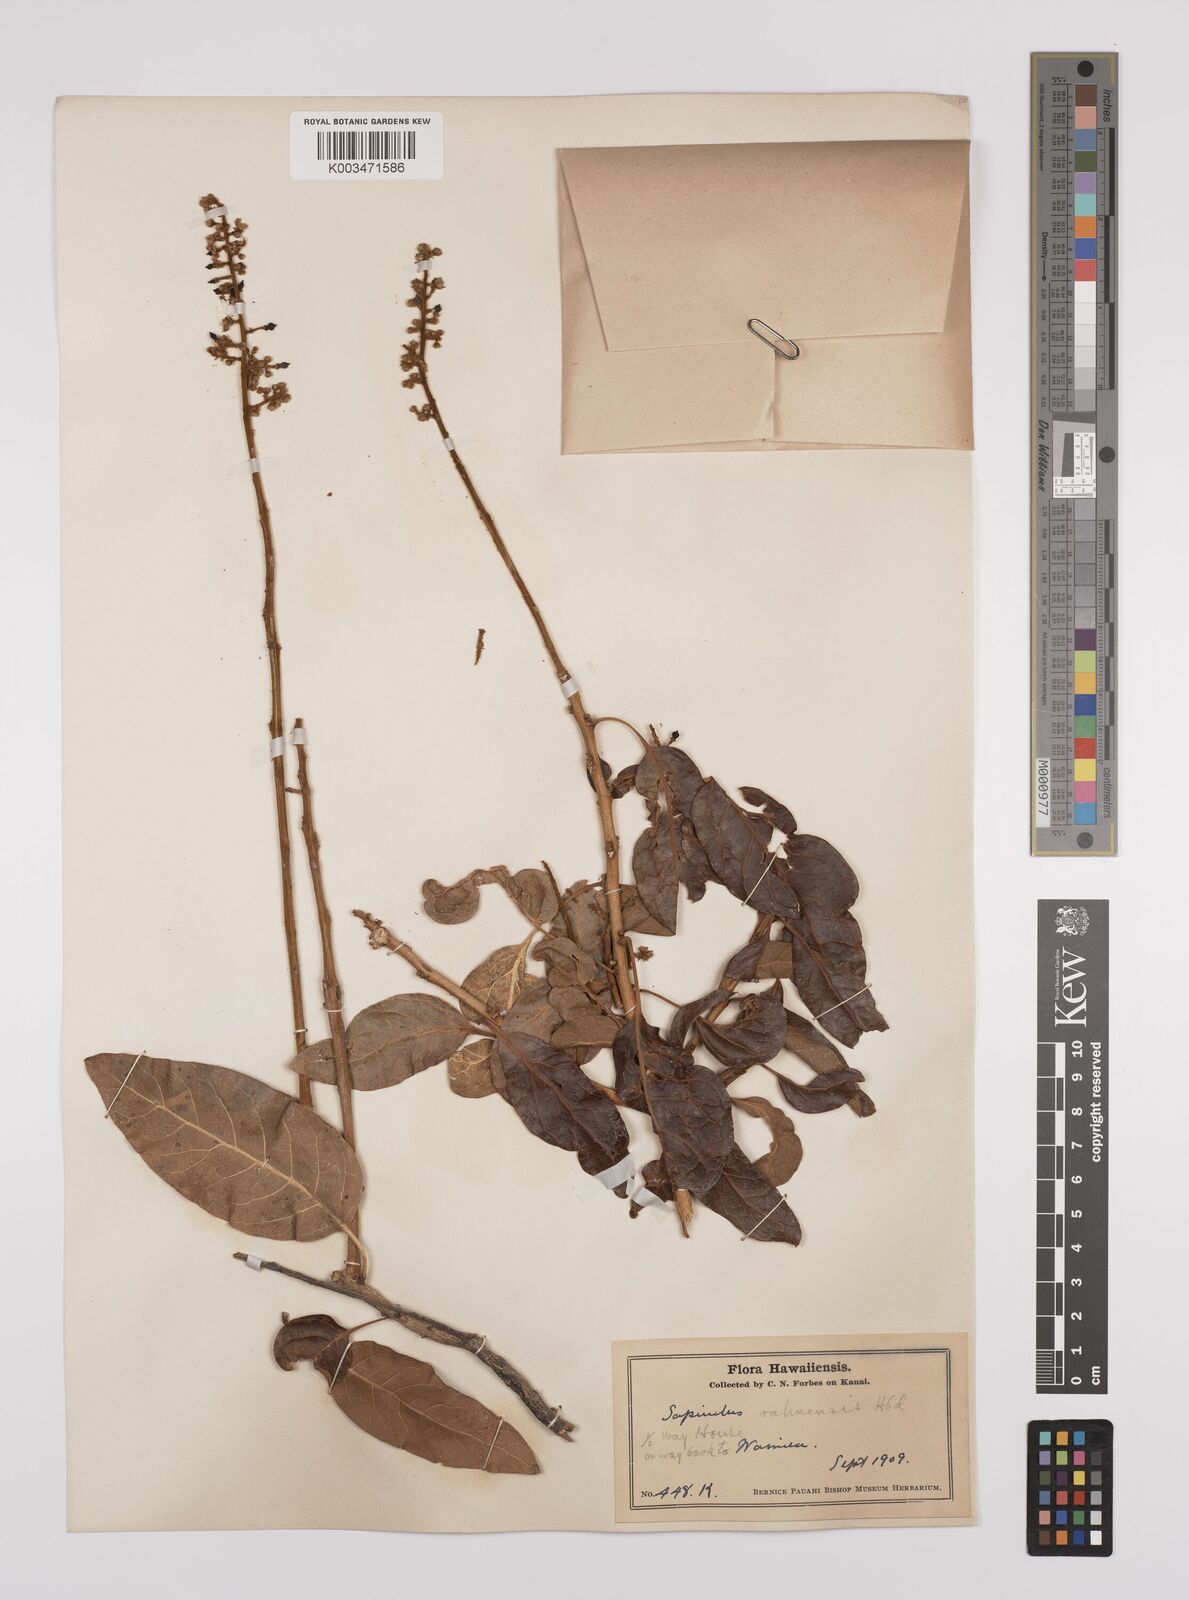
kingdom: Plantae
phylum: Tracheophyta
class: Magnoliopsida
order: Sapindales
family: Sapindaceae
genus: Sapindus
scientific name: Sapindus oahuensis
